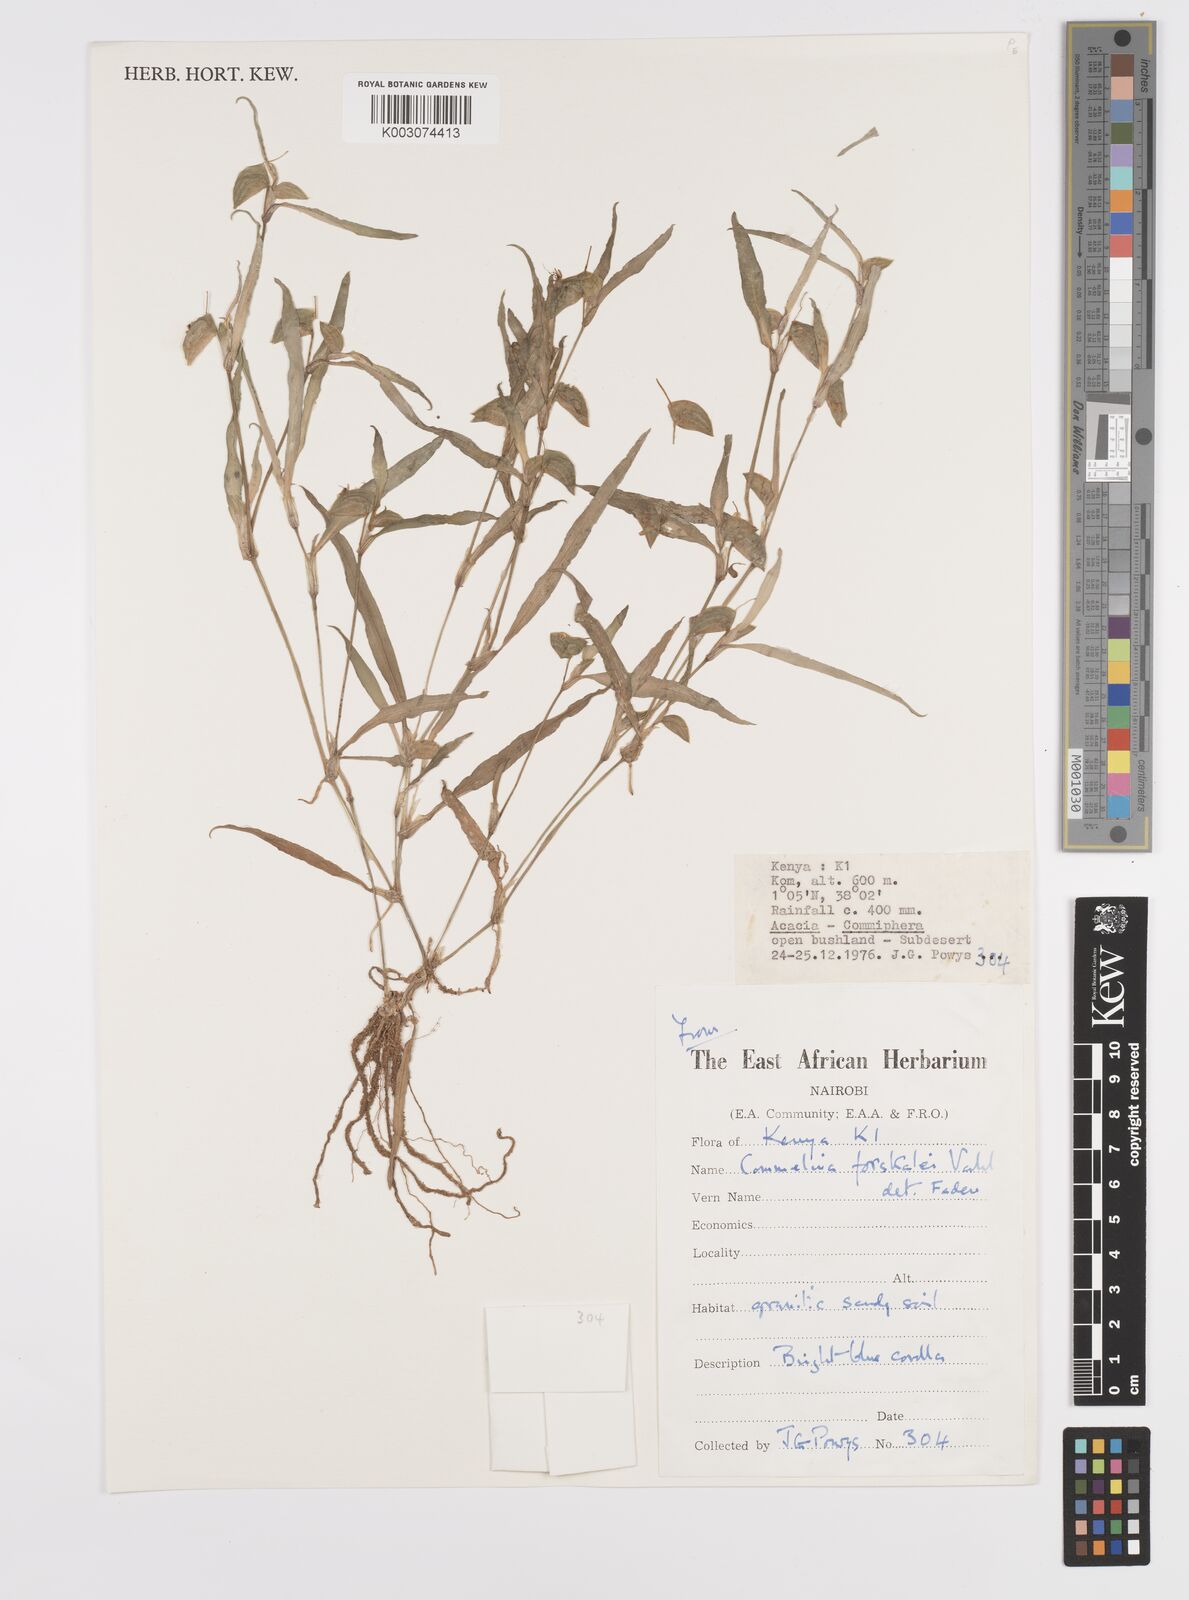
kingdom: Plantae
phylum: Tracheophyta
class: Liliopsida
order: Commelinales
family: Commelinaceae
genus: Commelina
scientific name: Commelina forskaolii
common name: Rat's ear
